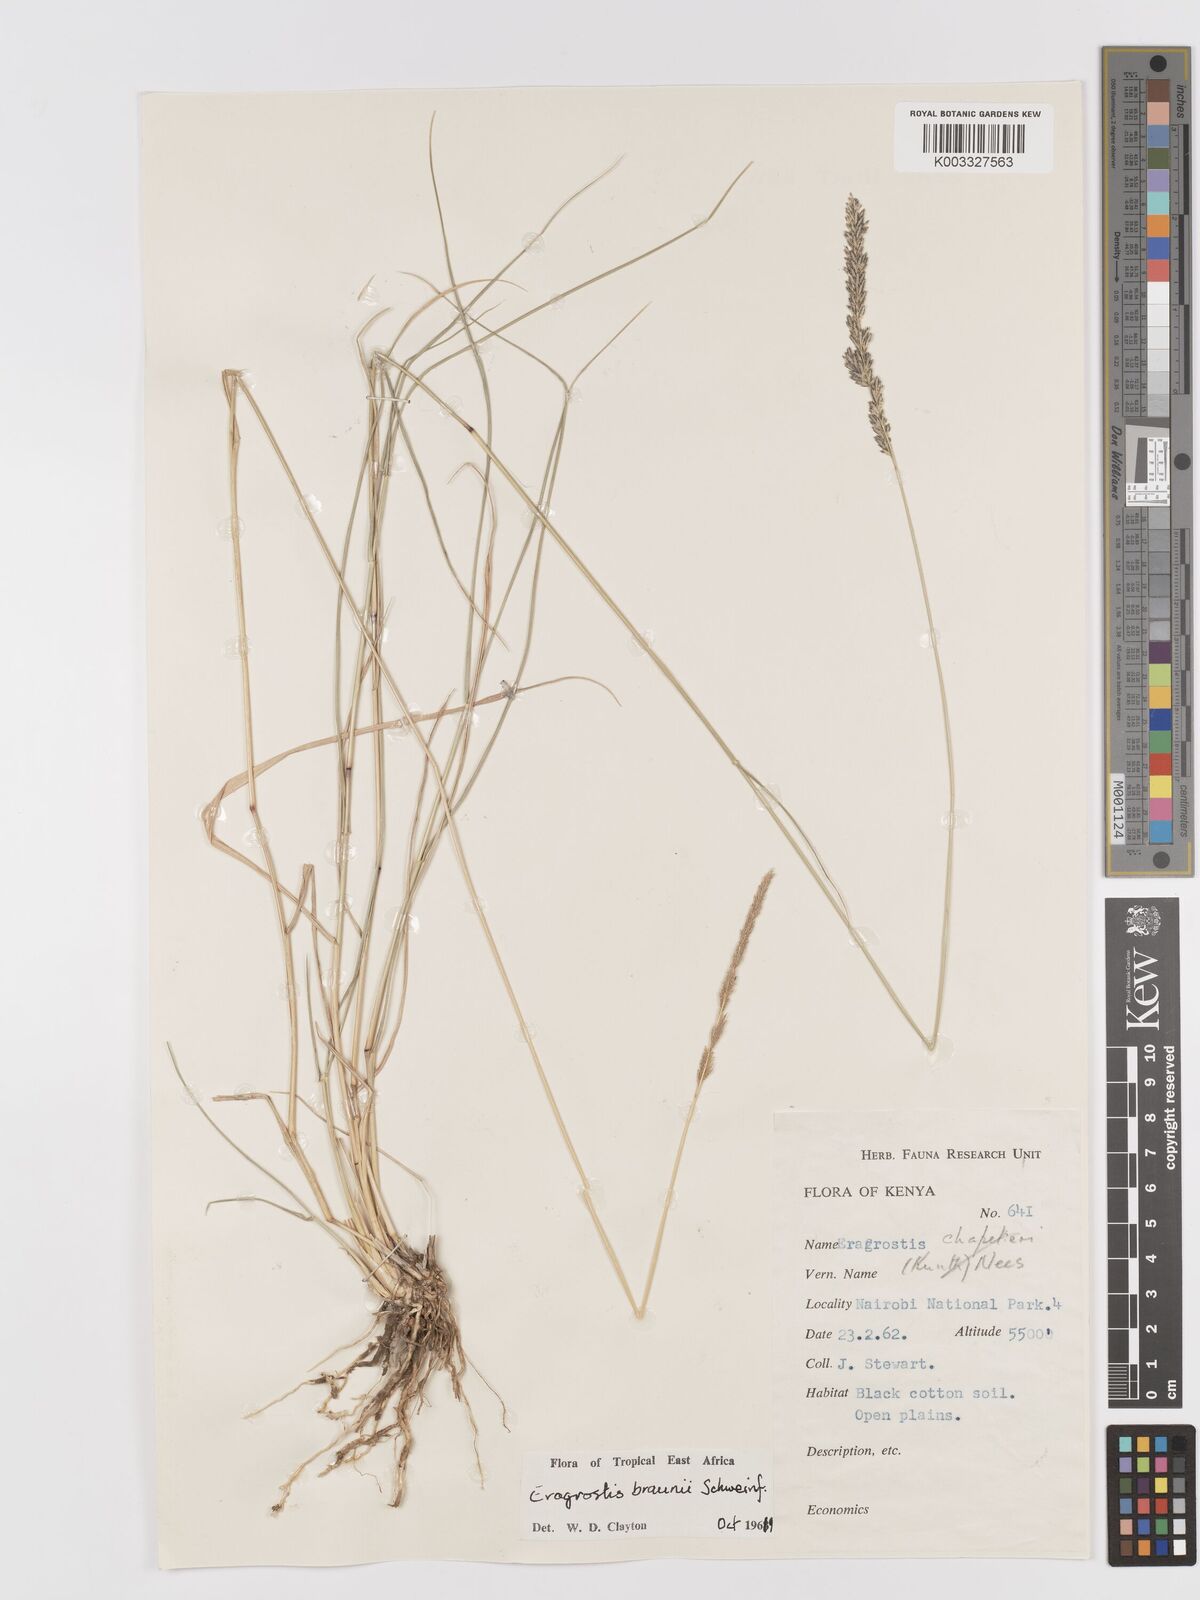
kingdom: Plantae
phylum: Tracheophyta
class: Liliopsida
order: Poales
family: Poaceae
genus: Eragrostis
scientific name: Eragrostis braunii
